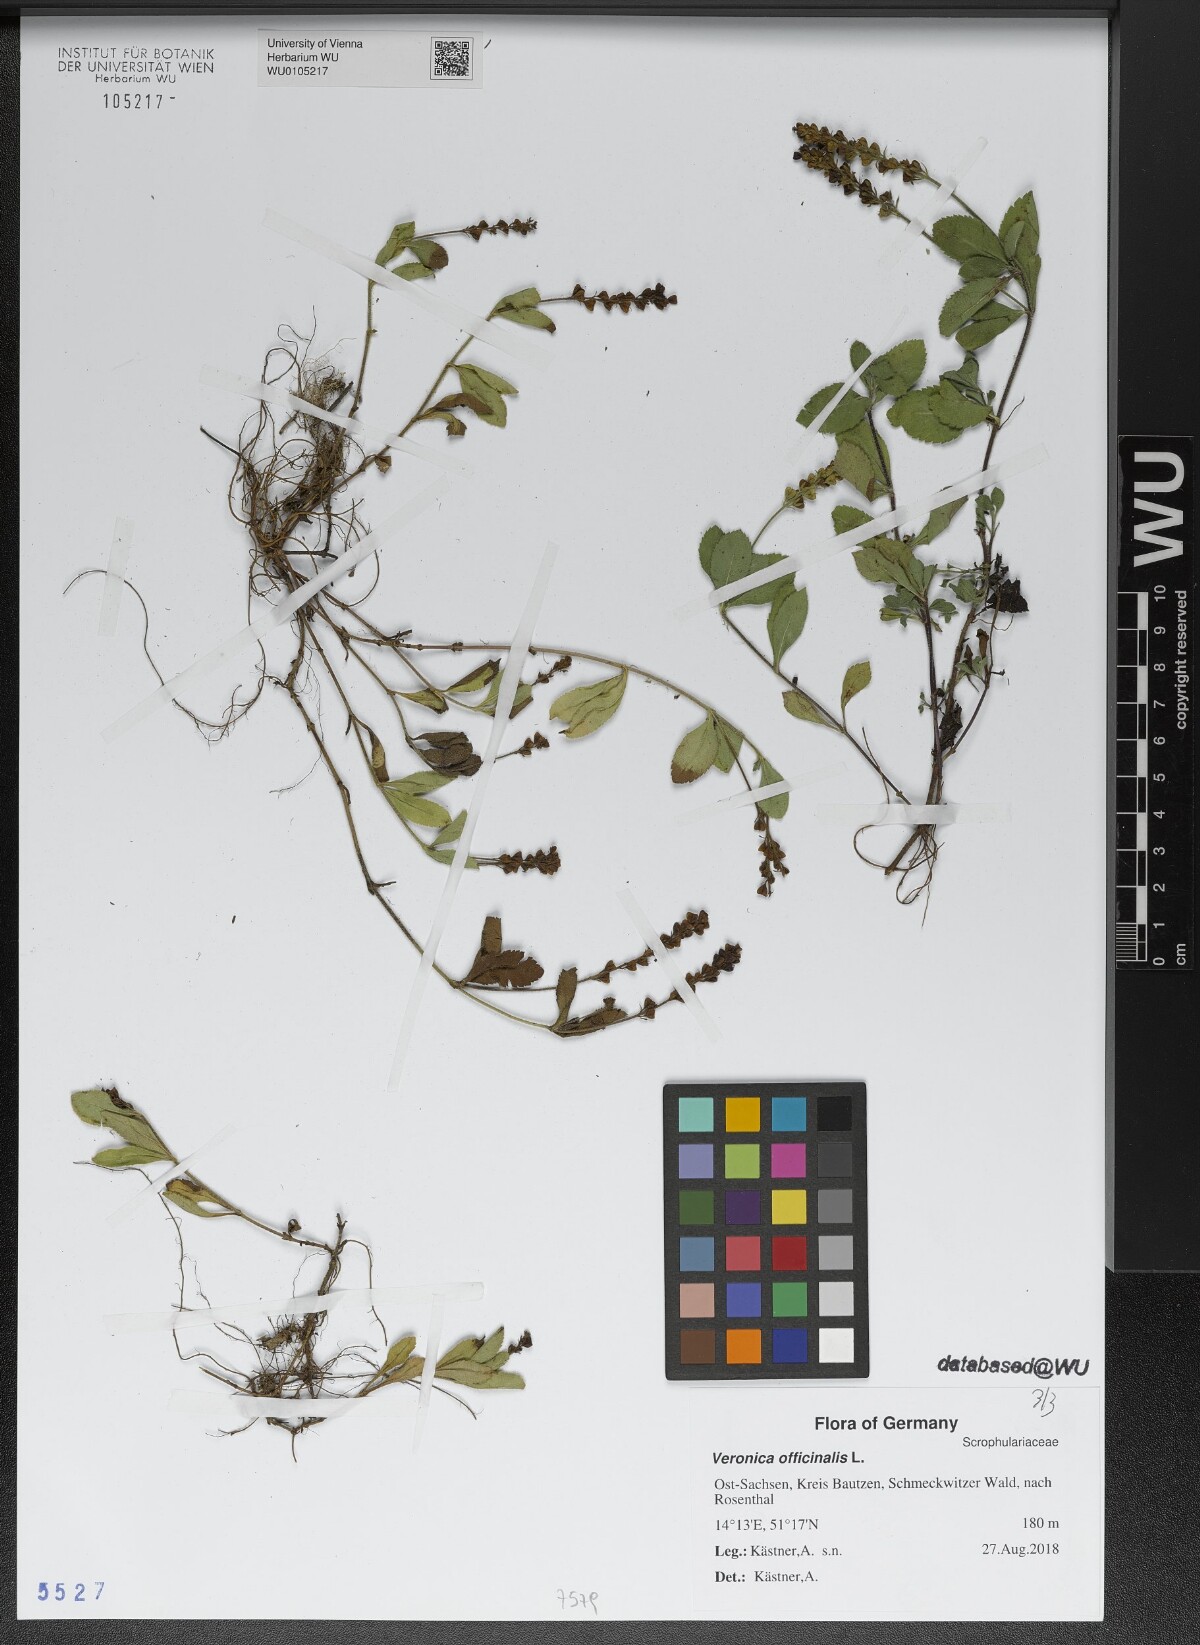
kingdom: Plantae
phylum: Tracheophyta
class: Magnoliopsida
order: Lamiales
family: Plantaginaceae
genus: Veronica
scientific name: Veronica officinalis
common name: Common speedwell
